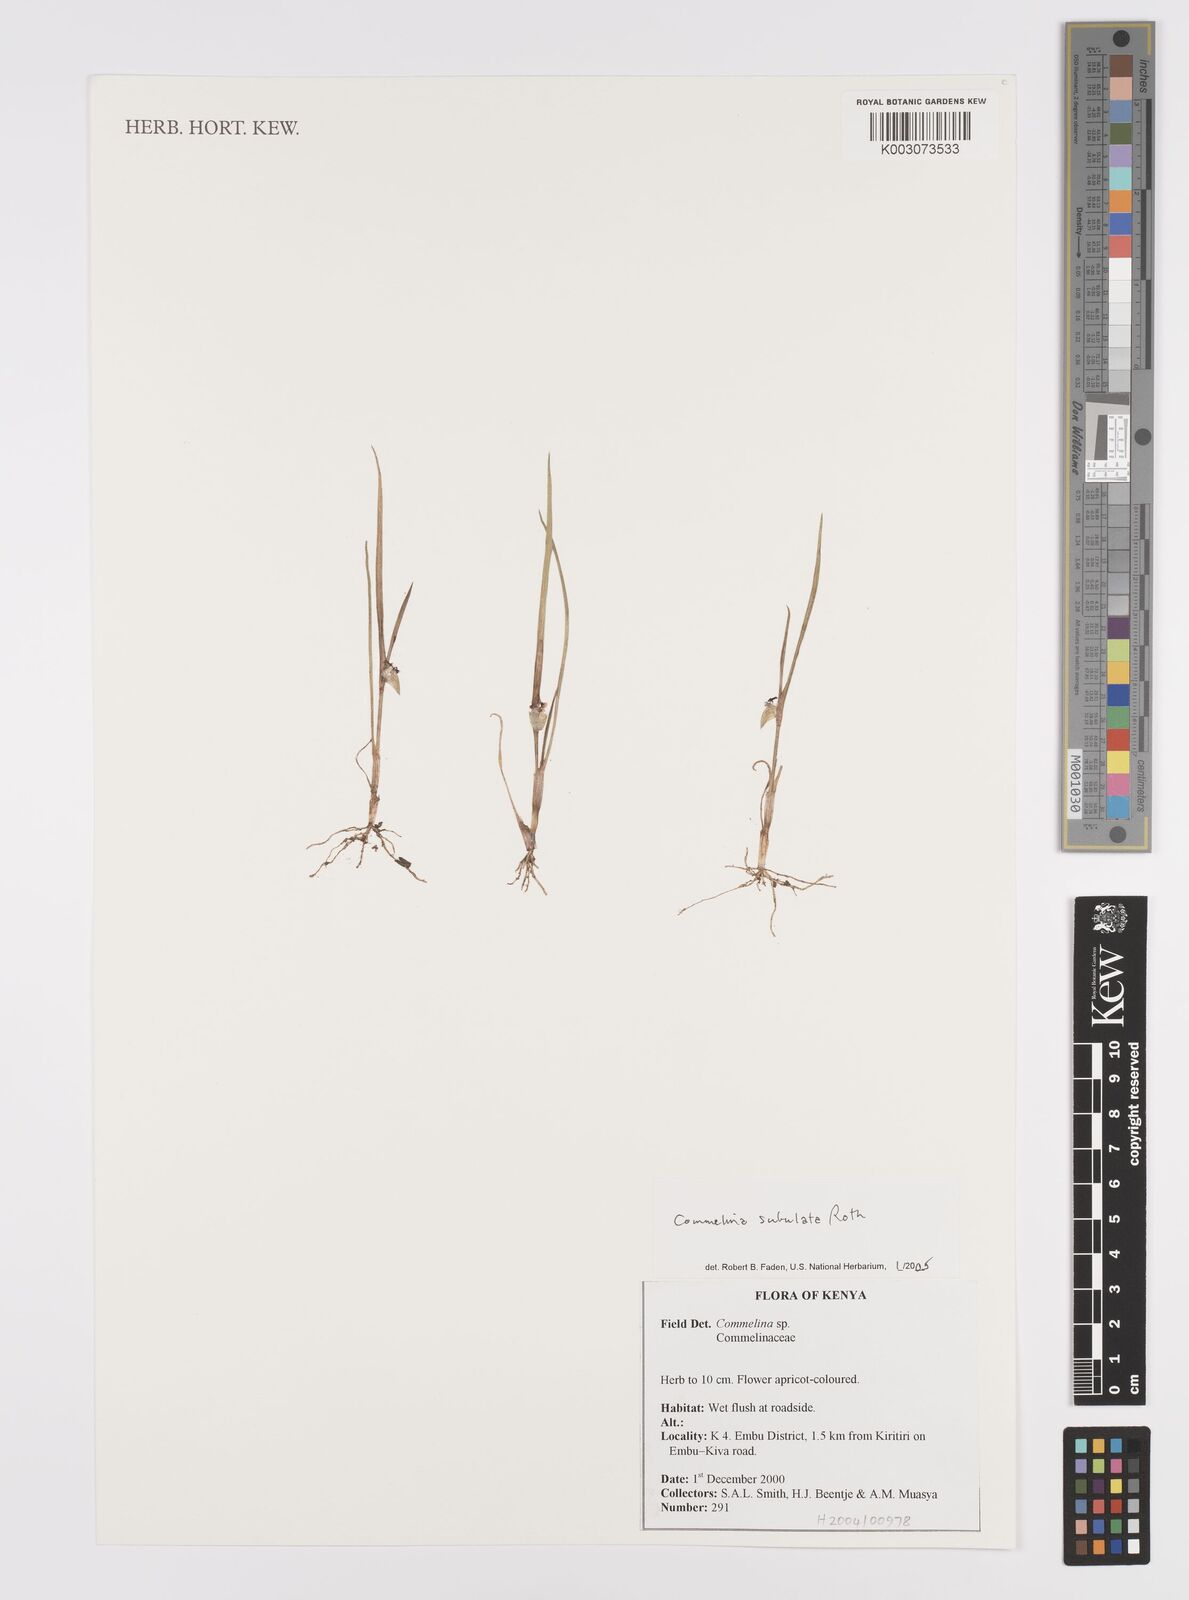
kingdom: Plantae
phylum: Tracheophyta
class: Liliopsida
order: Commelinales
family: Commelinaceae
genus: Commelina
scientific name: Commelina subulata
